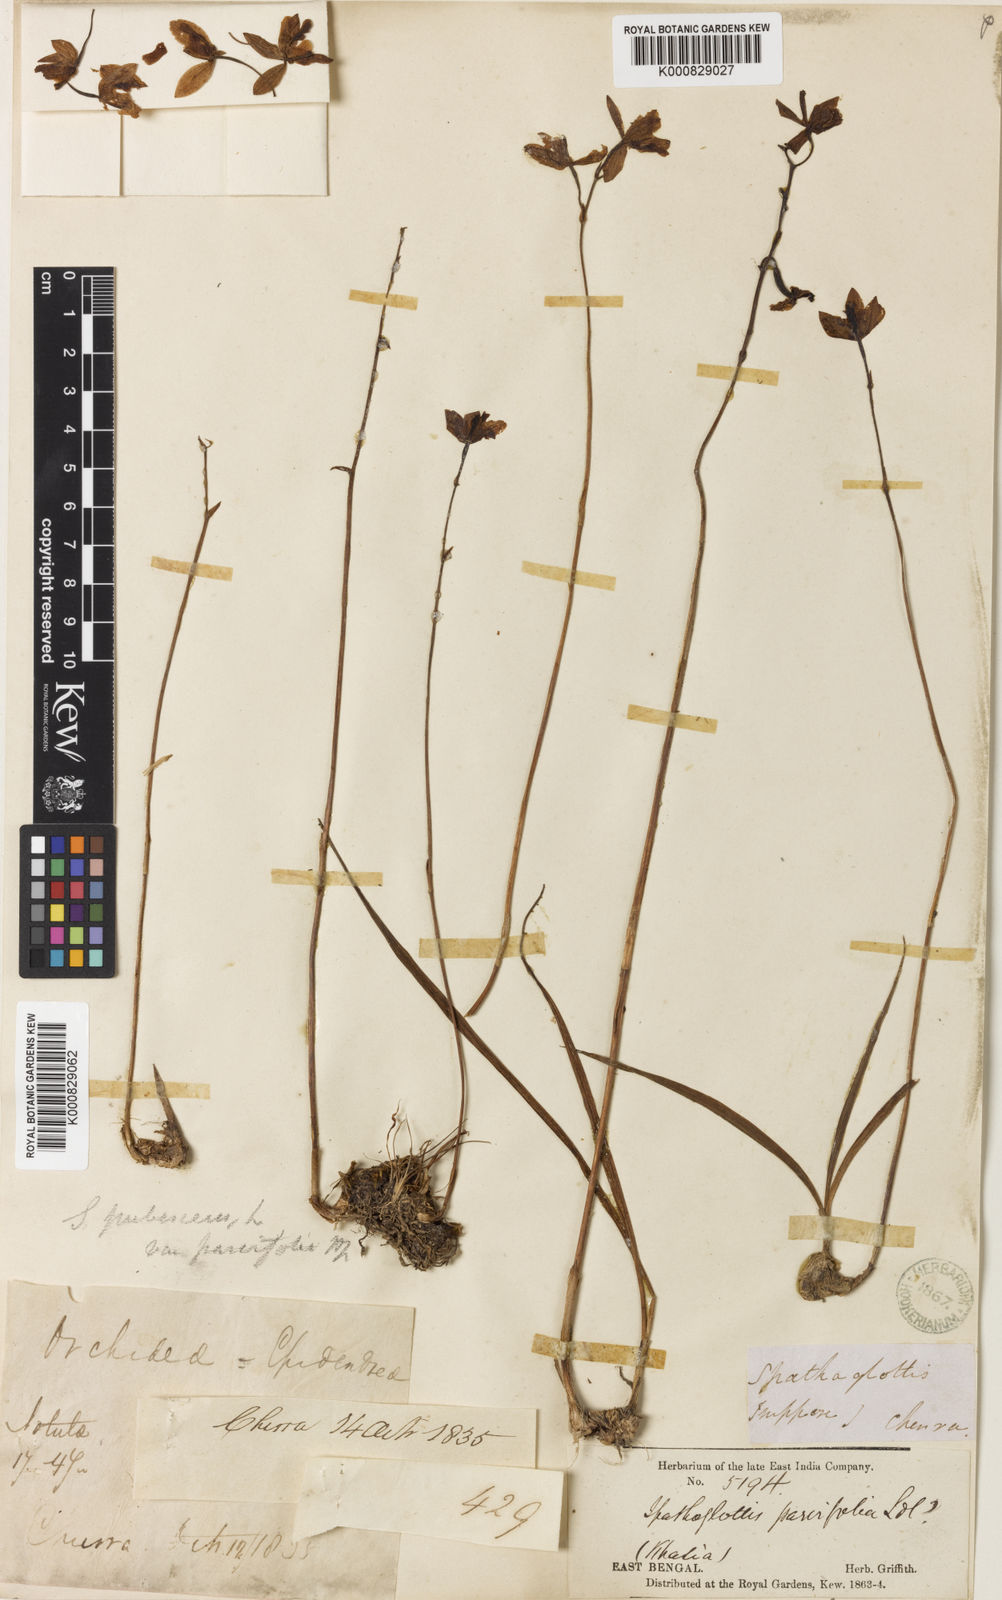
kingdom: Plantae
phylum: Tracheophyta
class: Liliopsida
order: Asparagales
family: Orchidaceae
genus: Spathoglottis
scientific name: Spathoglottis pubescens
